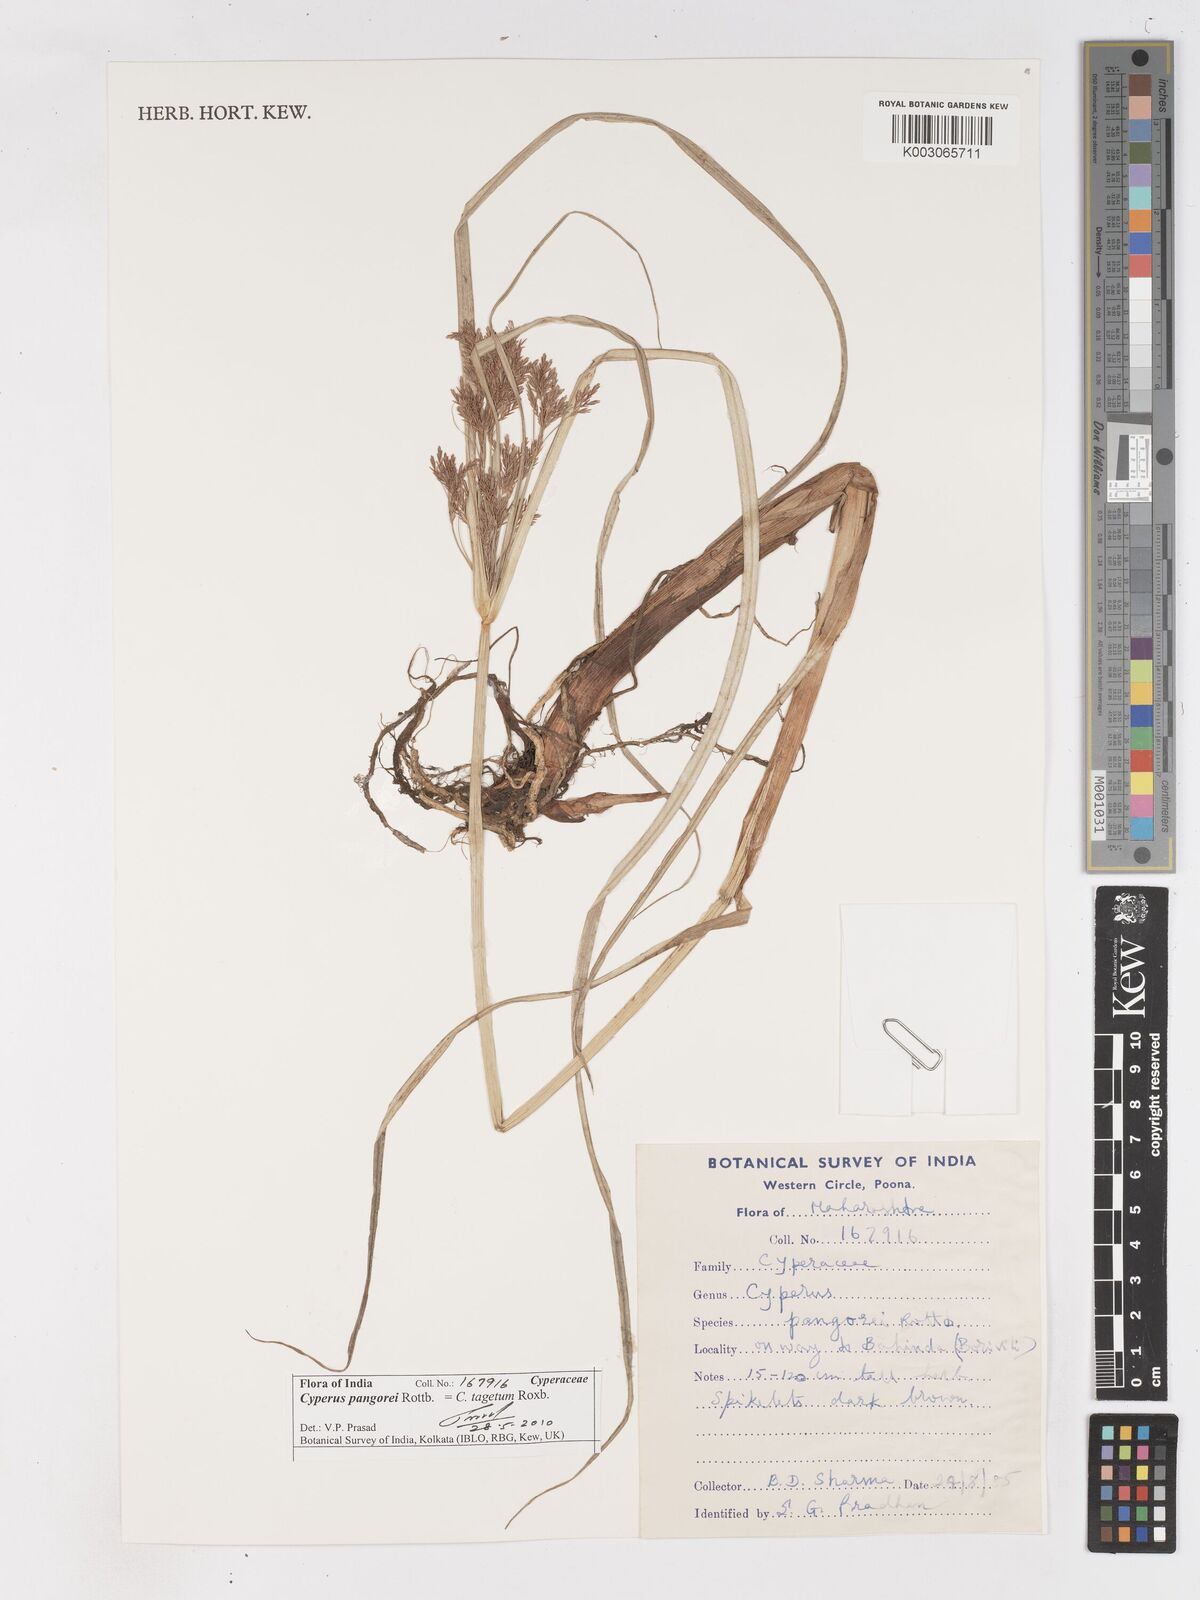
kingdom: Plantae
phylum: Tracheophyta
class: Liliopsida
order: Poales
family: Cyperaceae
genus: Cyperus
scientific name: Cyperus pangorei
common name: Mat sedge
